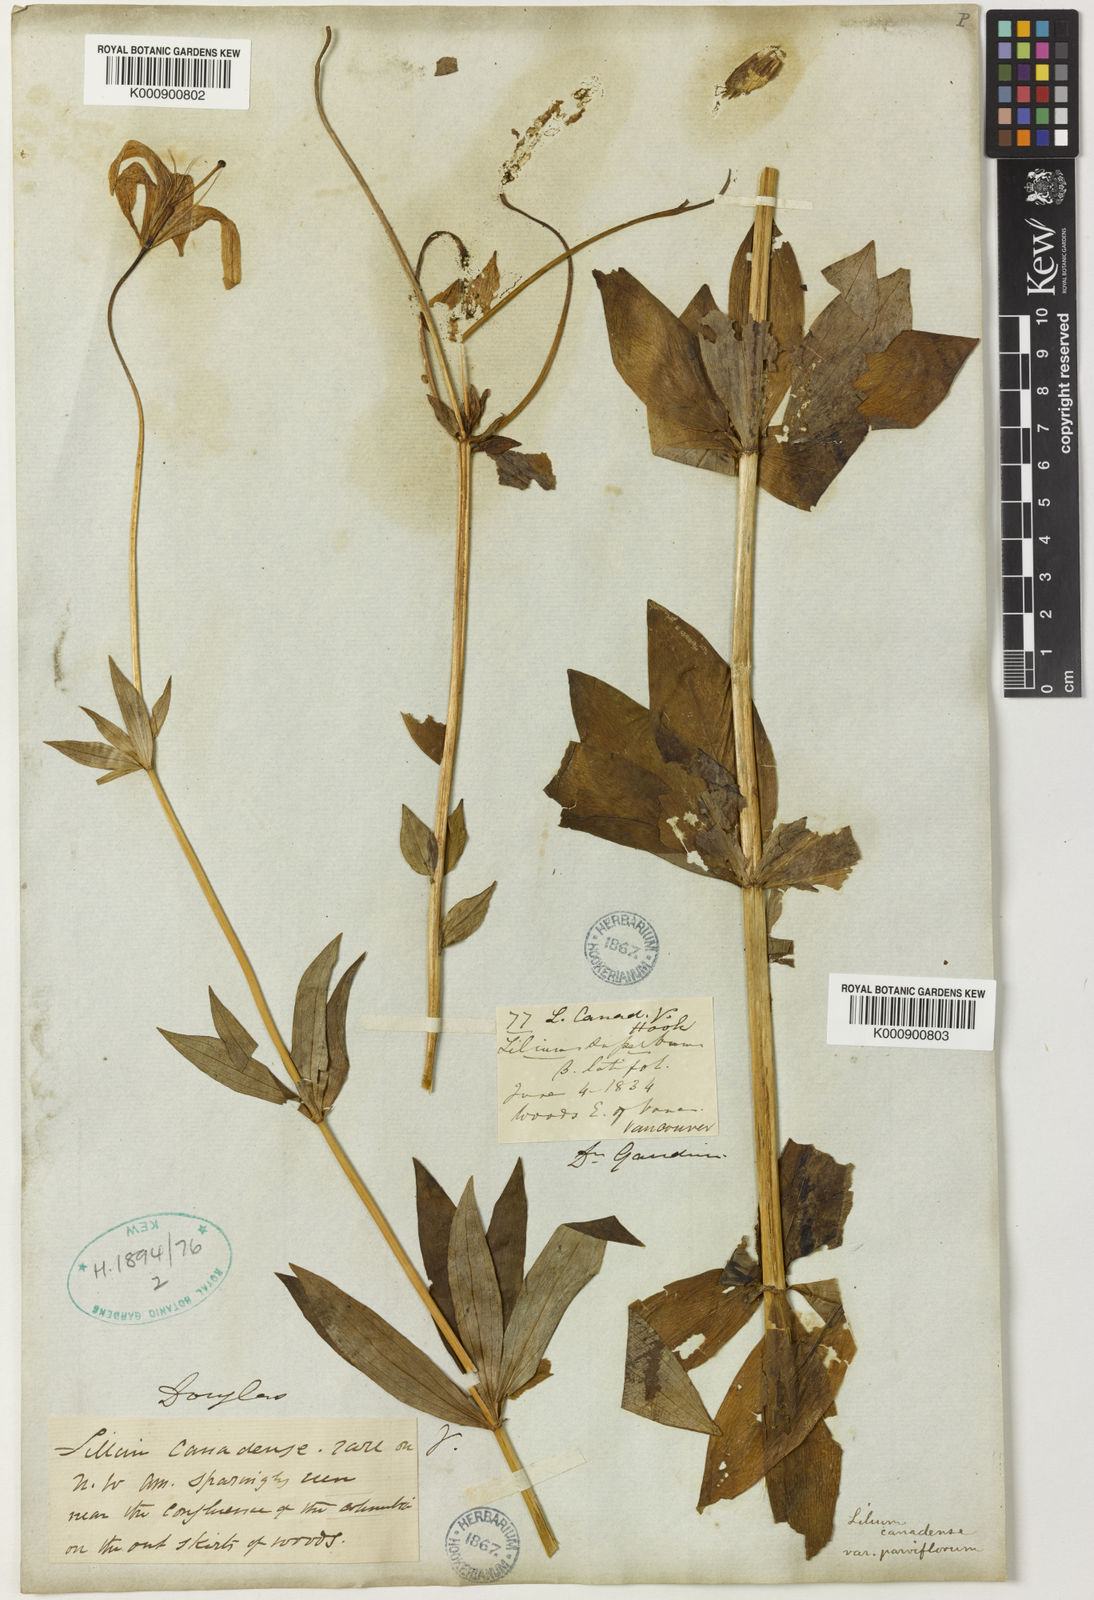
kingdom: Plantae
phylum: Tracheophyta
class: Liliopsida
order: Liliales
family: Liliaceae
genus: Lilium
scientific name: Lilium columbianum
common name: Columbia lily
